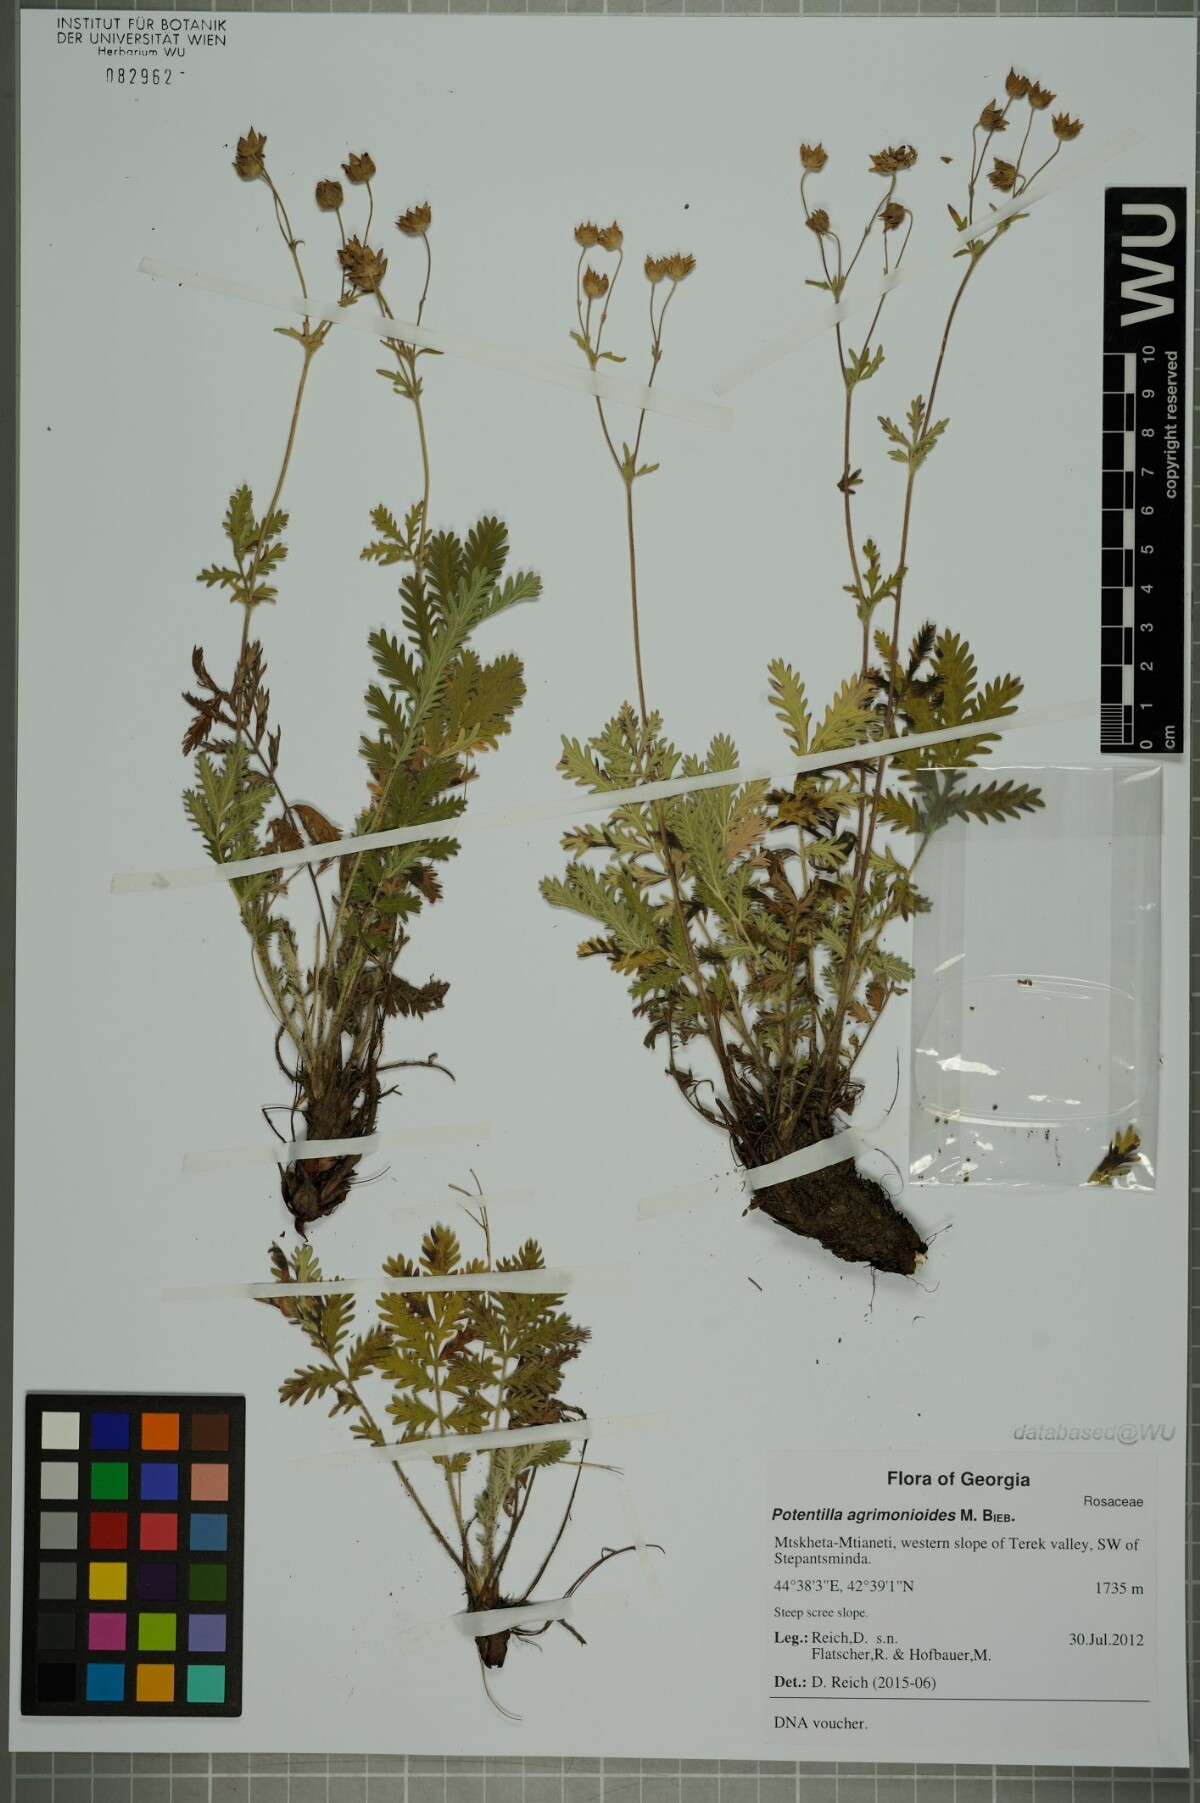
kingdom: Plantae
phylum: Tracheophyta
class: Magnoliopsida
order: Rosales
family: Rosaceae
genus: Potentilla
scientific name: Potentilla agrimonioides
